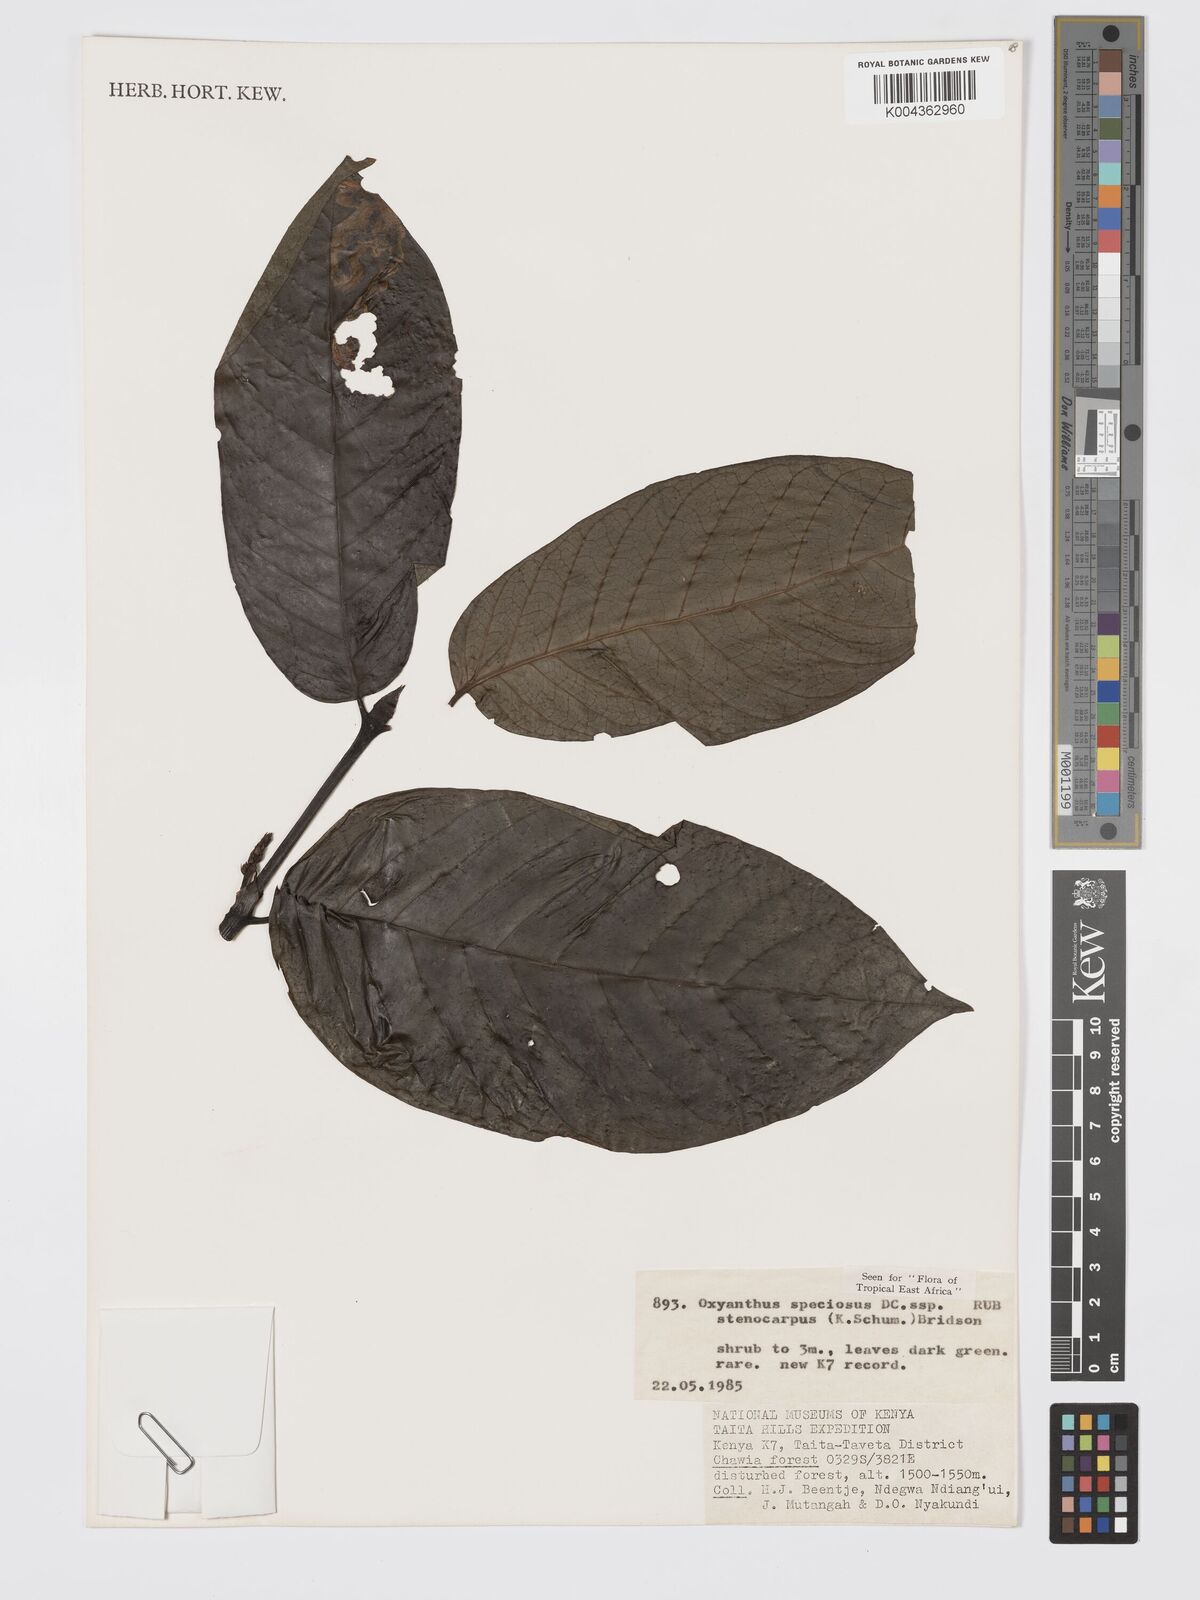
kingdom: Plantae
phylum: Tracheophyta
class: Magnoliopsida
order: Gentianales
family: Rubiaceae
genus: Oxyanthus
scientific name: Oxyanthus speciosus
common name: Whipstick loquat
